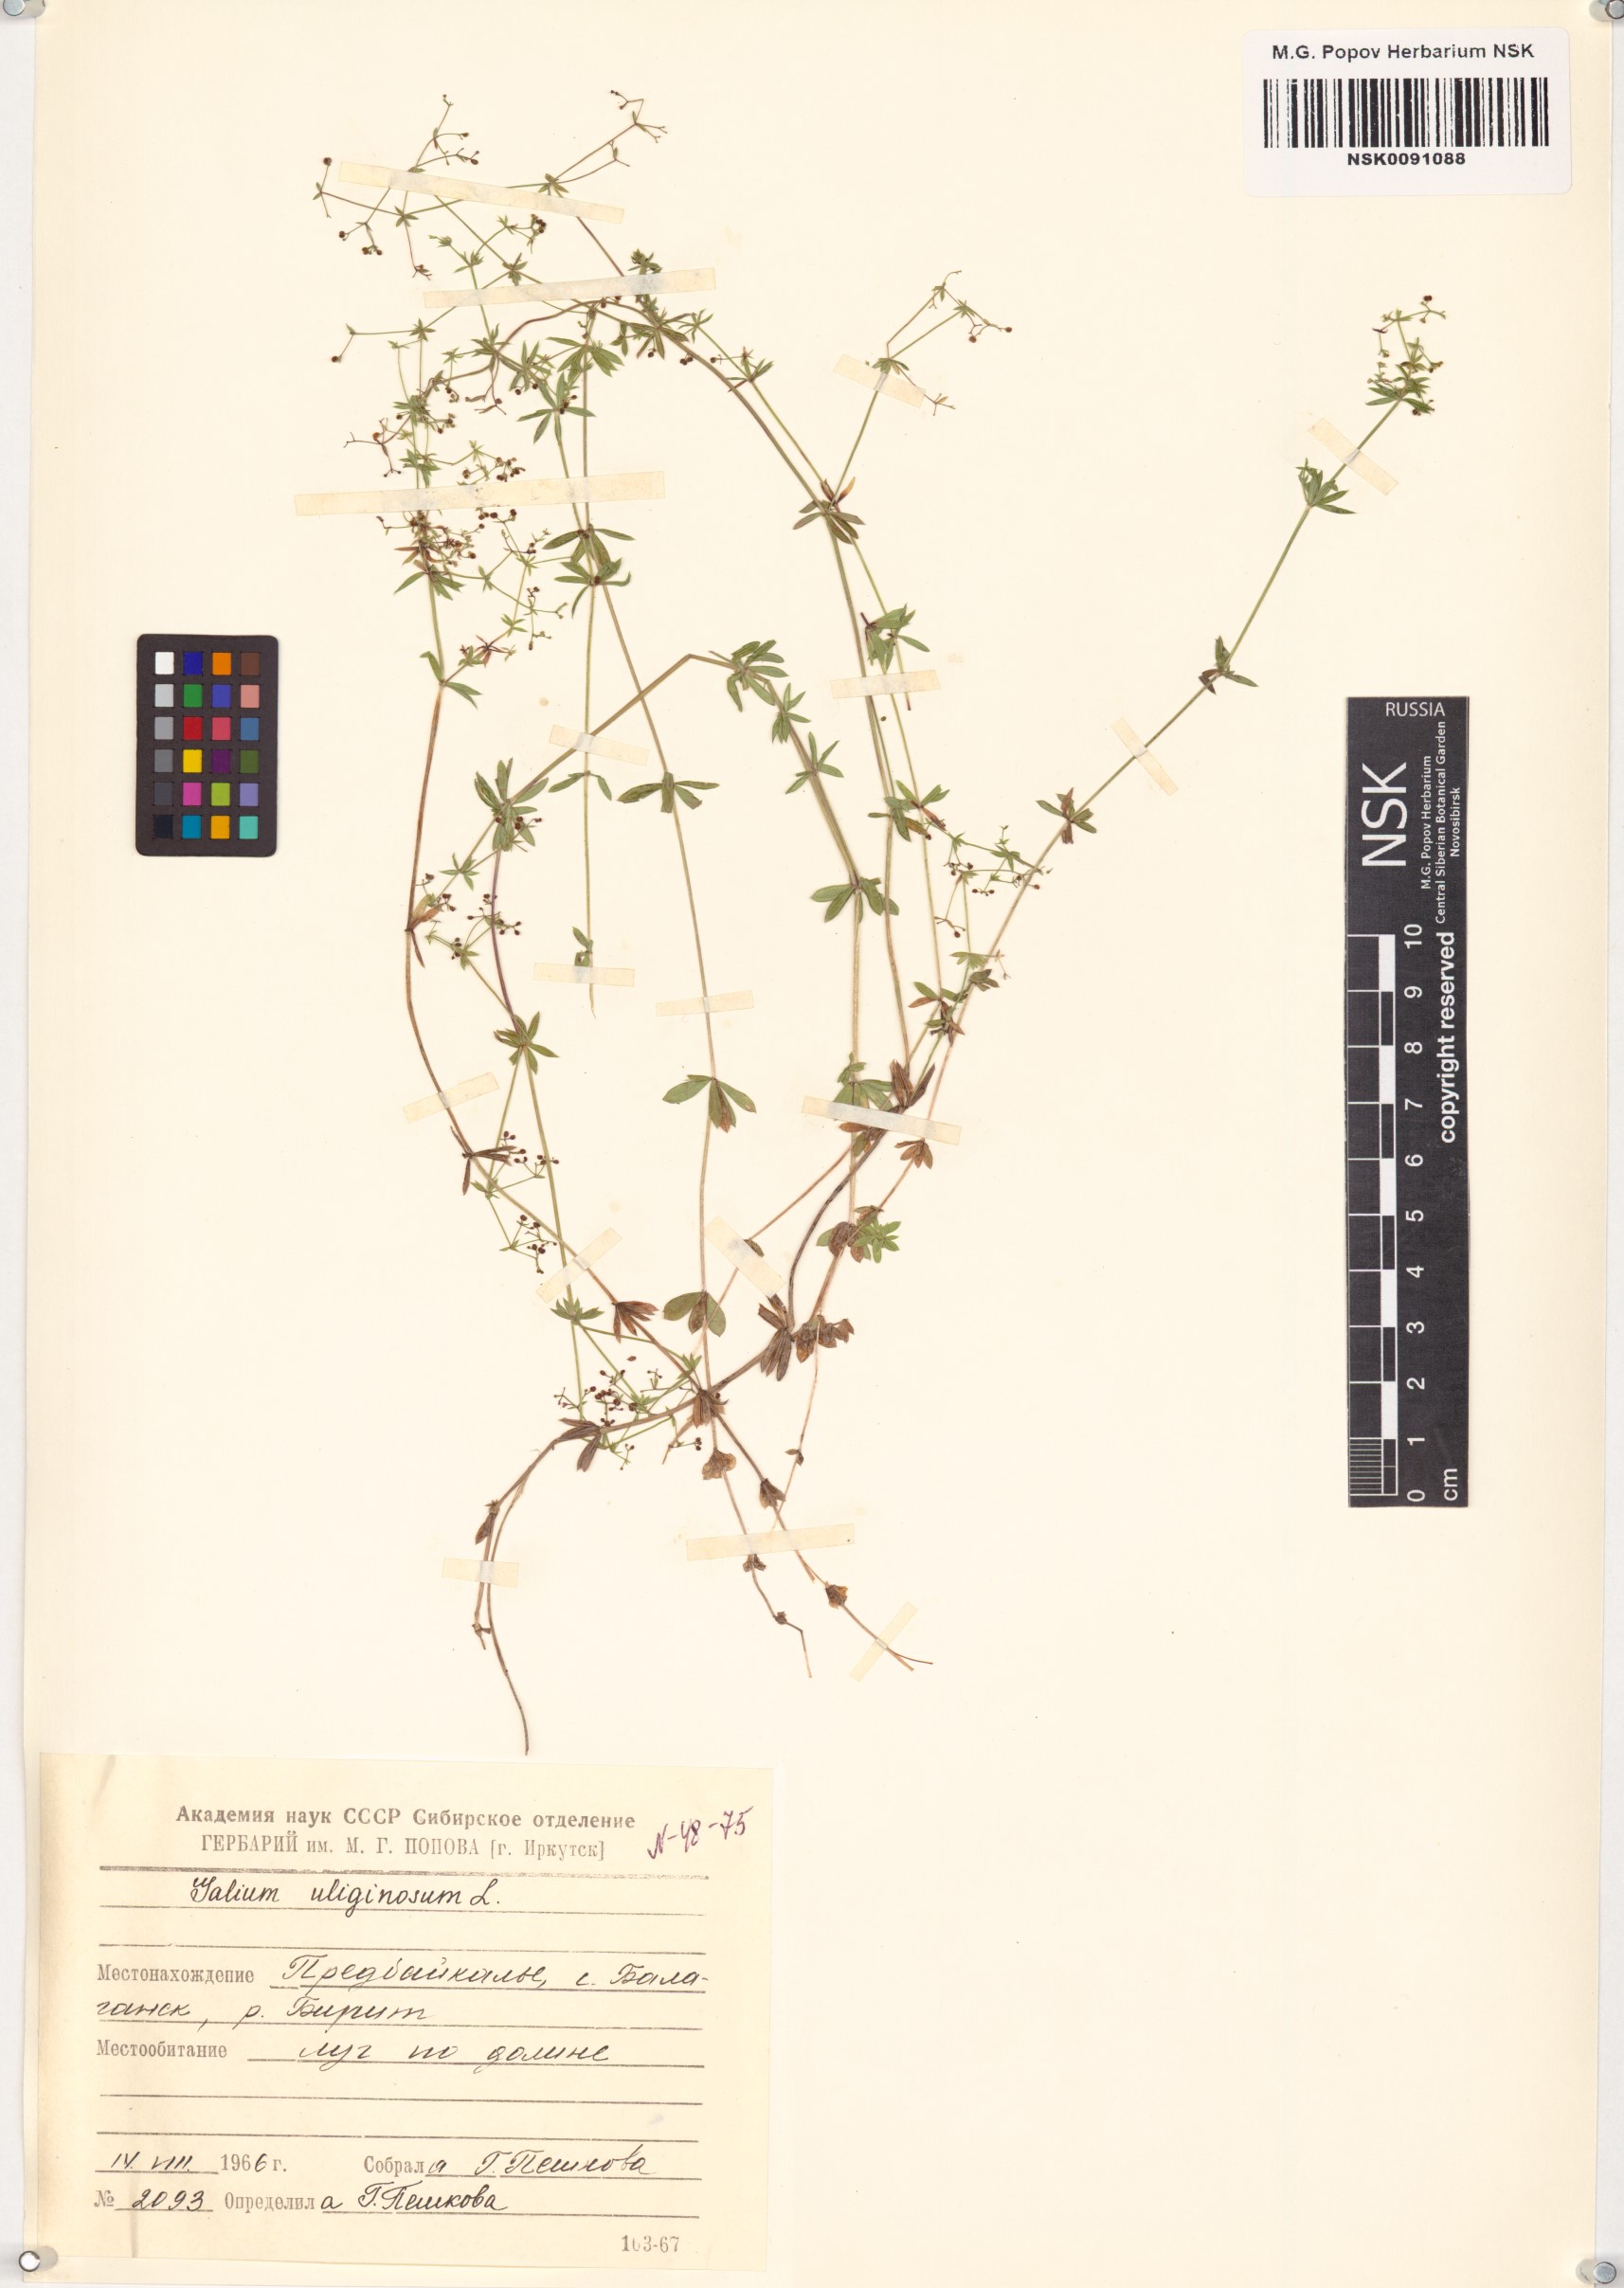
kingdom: Plantae
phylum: Tracheophyta
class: Magnoliopsida
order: Gentianales
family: Rubiaceae
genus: Galium
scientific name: Galium uliginosum
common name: Fen bedstraw
